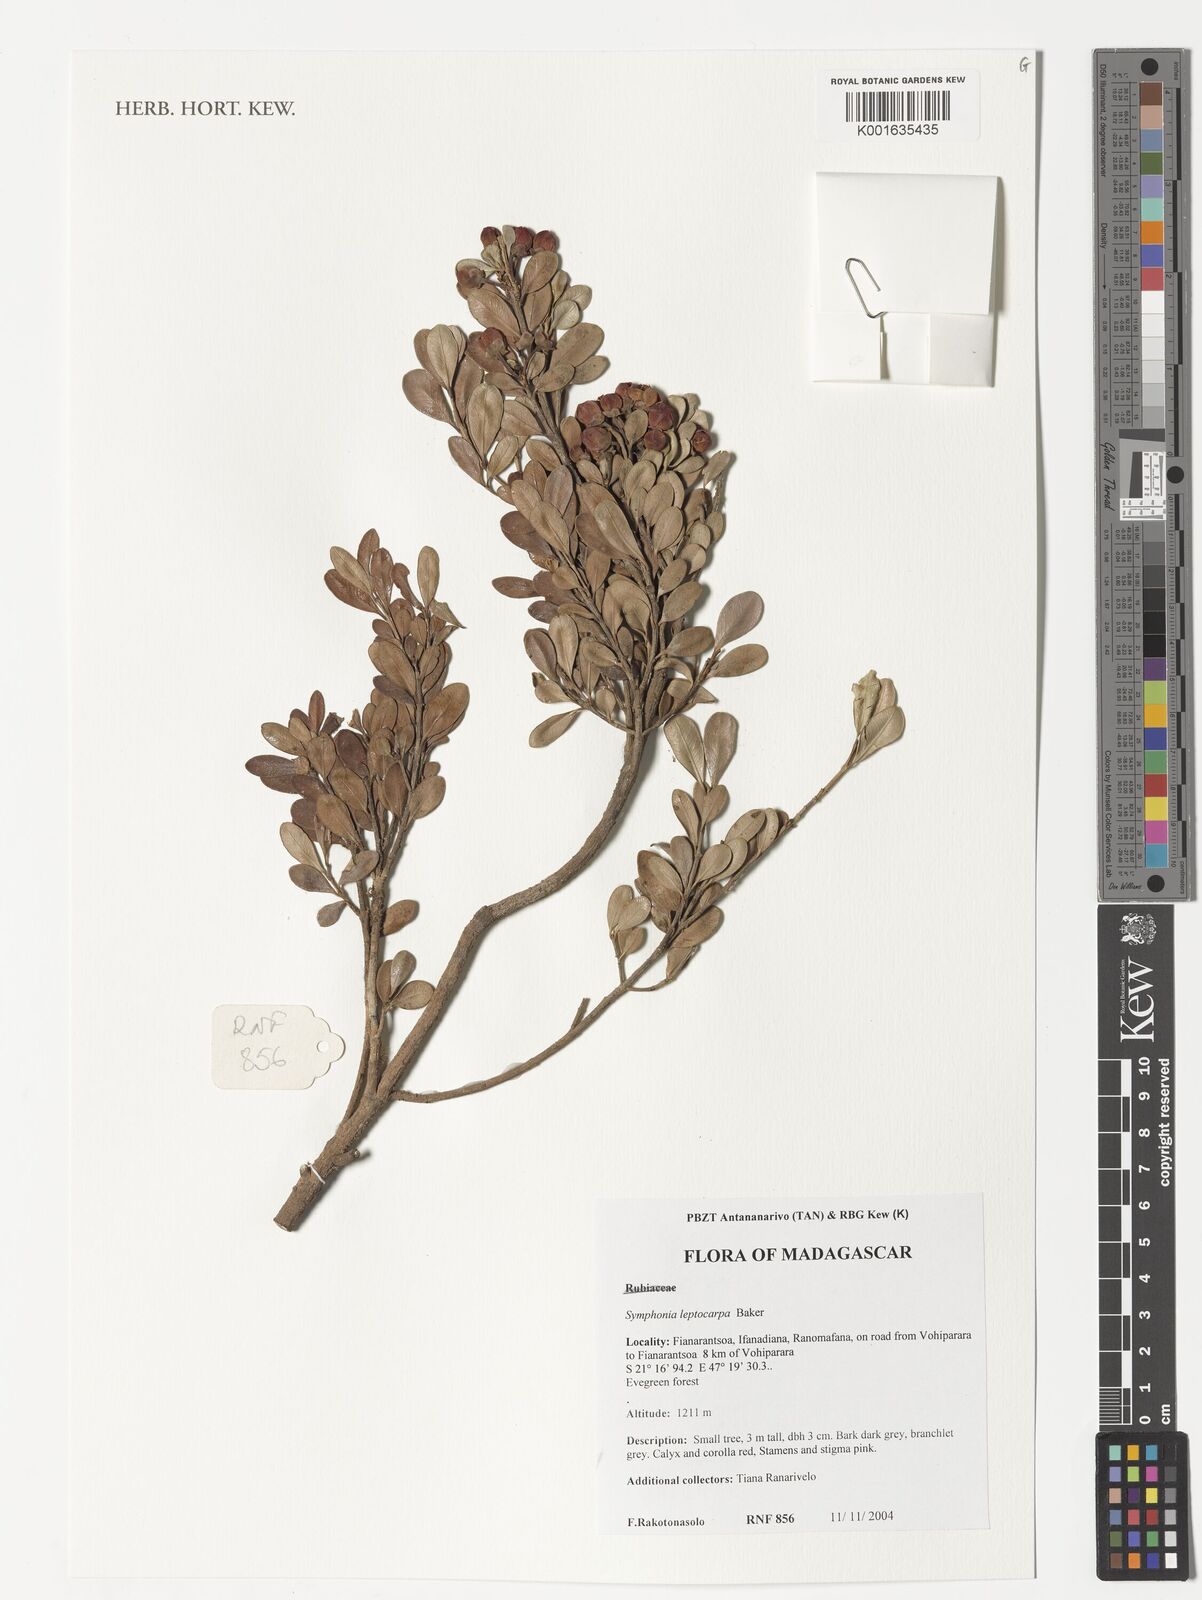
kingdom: Plantae
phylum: Tracheophyta
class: Magnoliopsida
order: Malpighiales
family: Clusiaceae
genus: Symphonia
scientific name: Symphonia lepidocarpa
